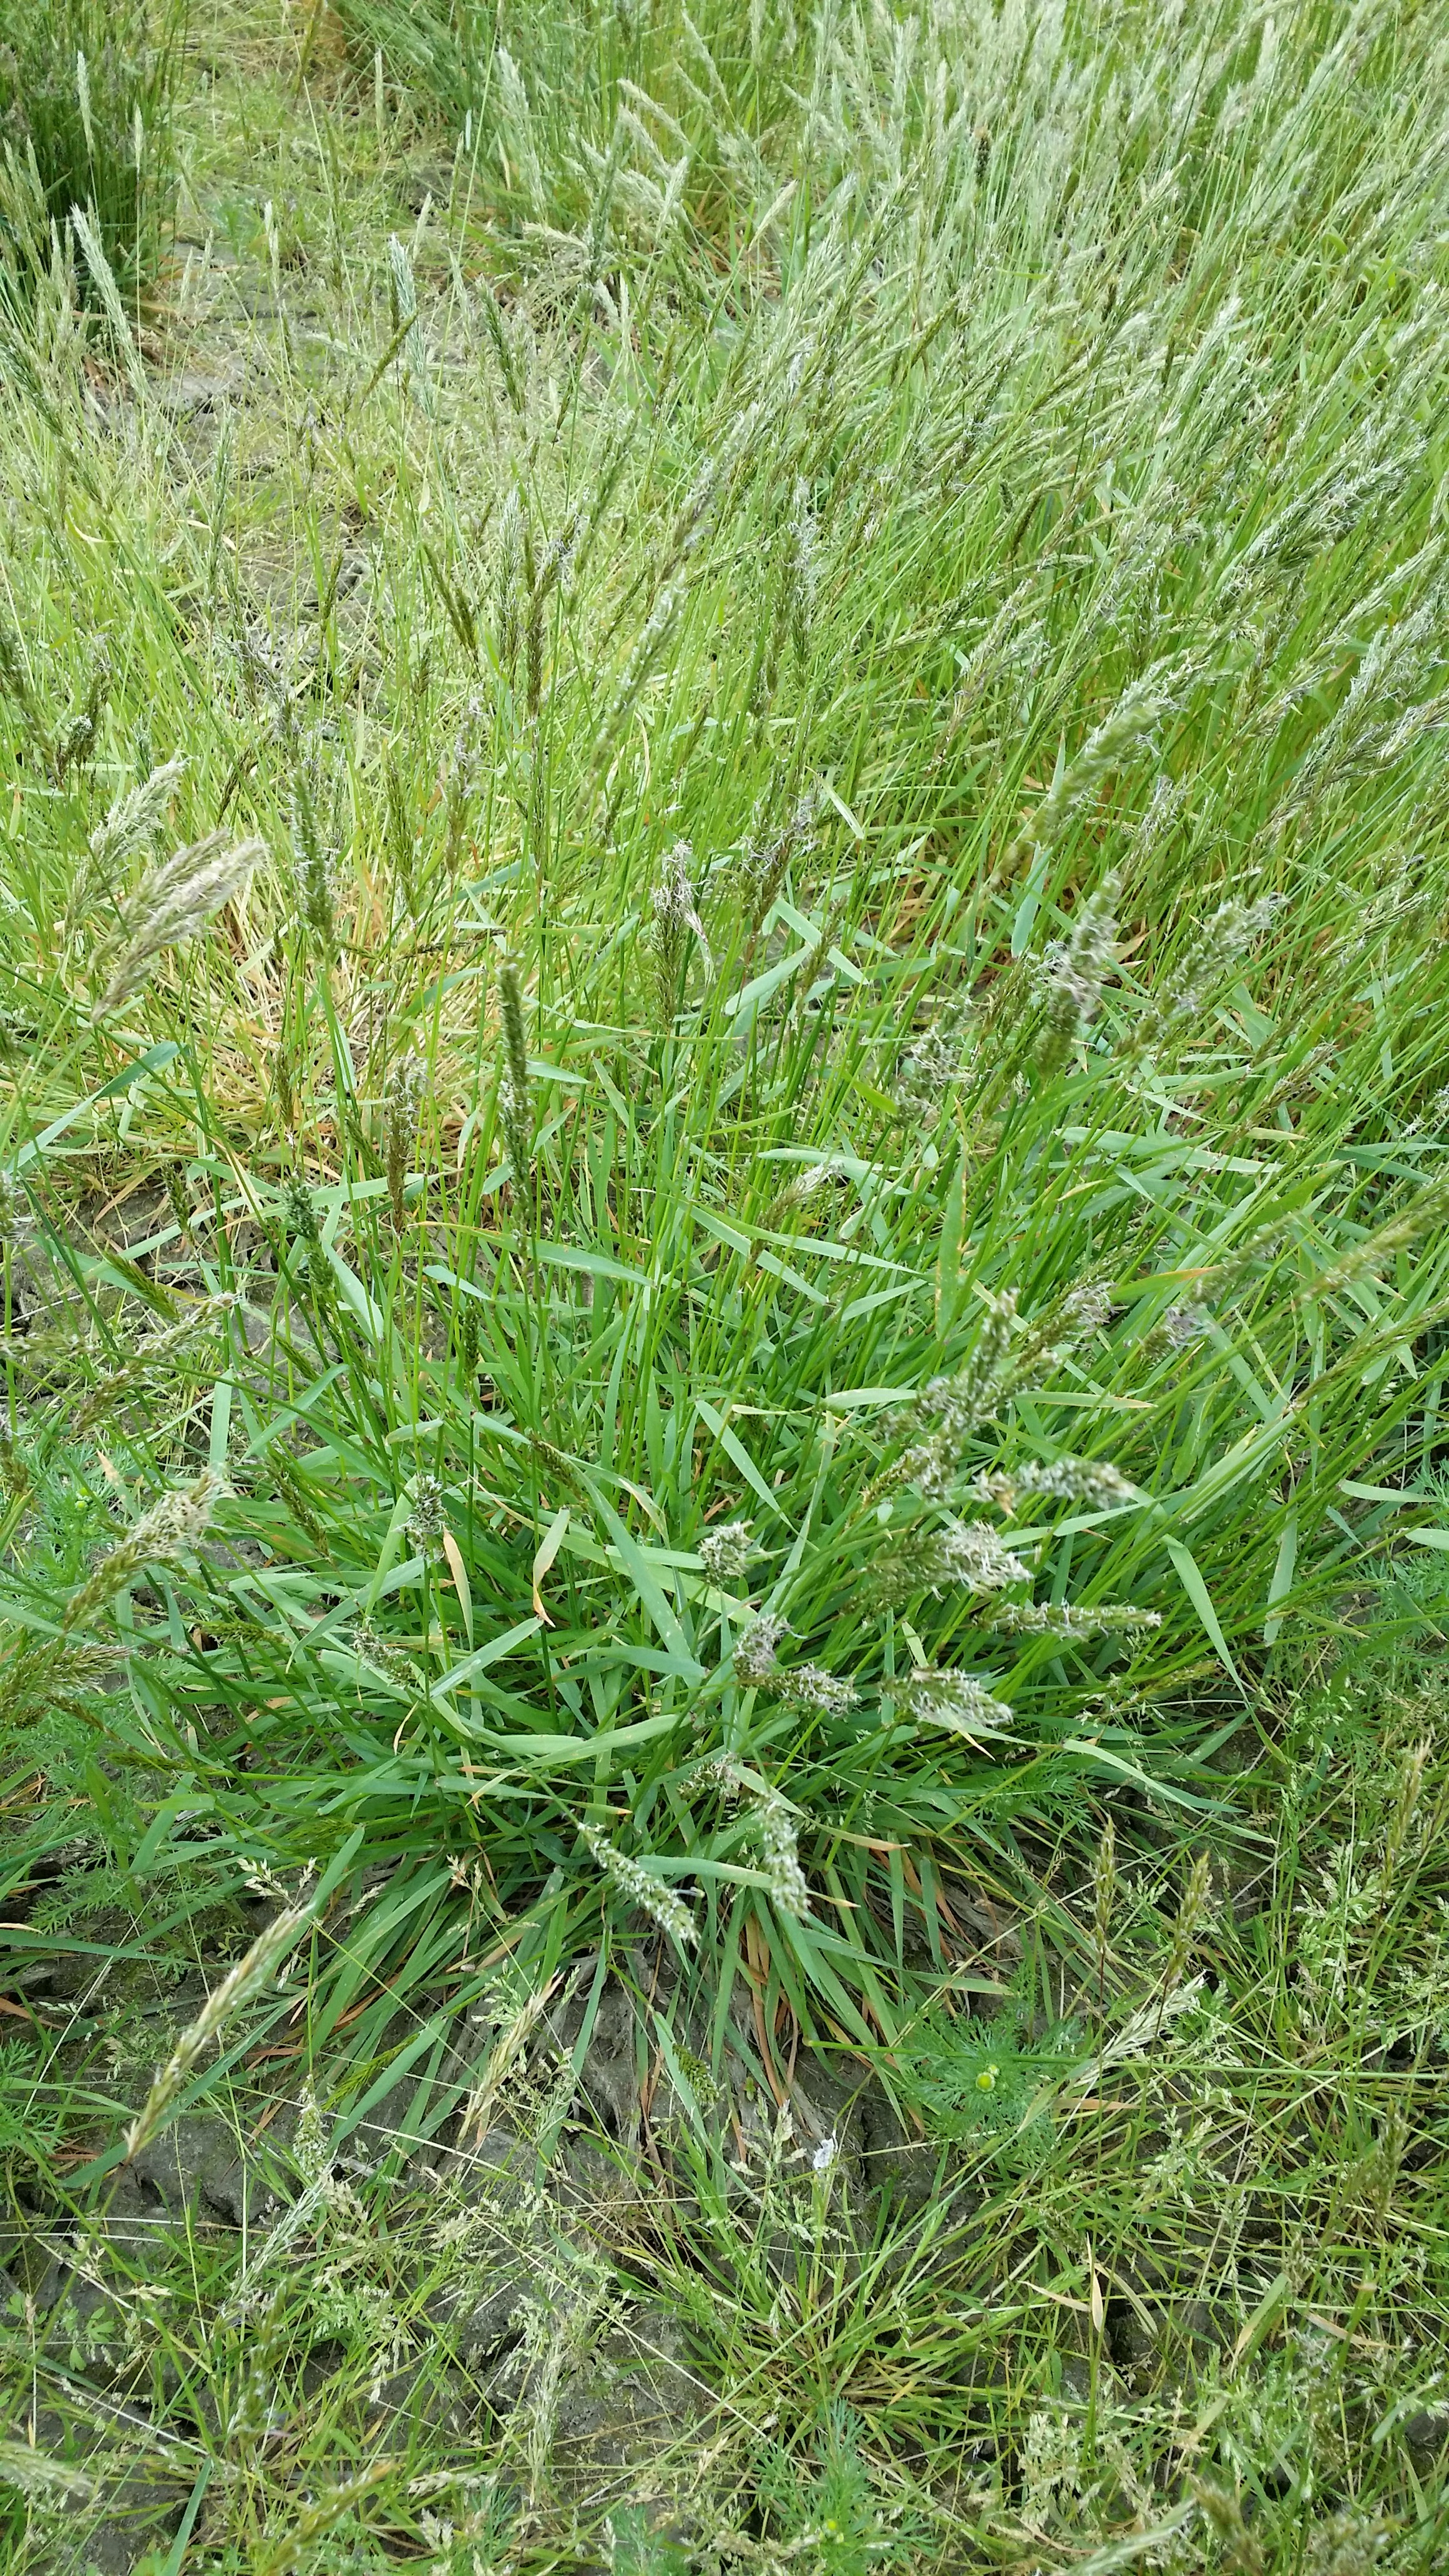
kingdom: Plantae
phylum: Tracheophyta
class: Liliopsida
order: Poales
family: Poaceae
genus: Anthoxanthum
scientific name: Anthoxanthum odoratum
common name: Sweet vernalgrass
